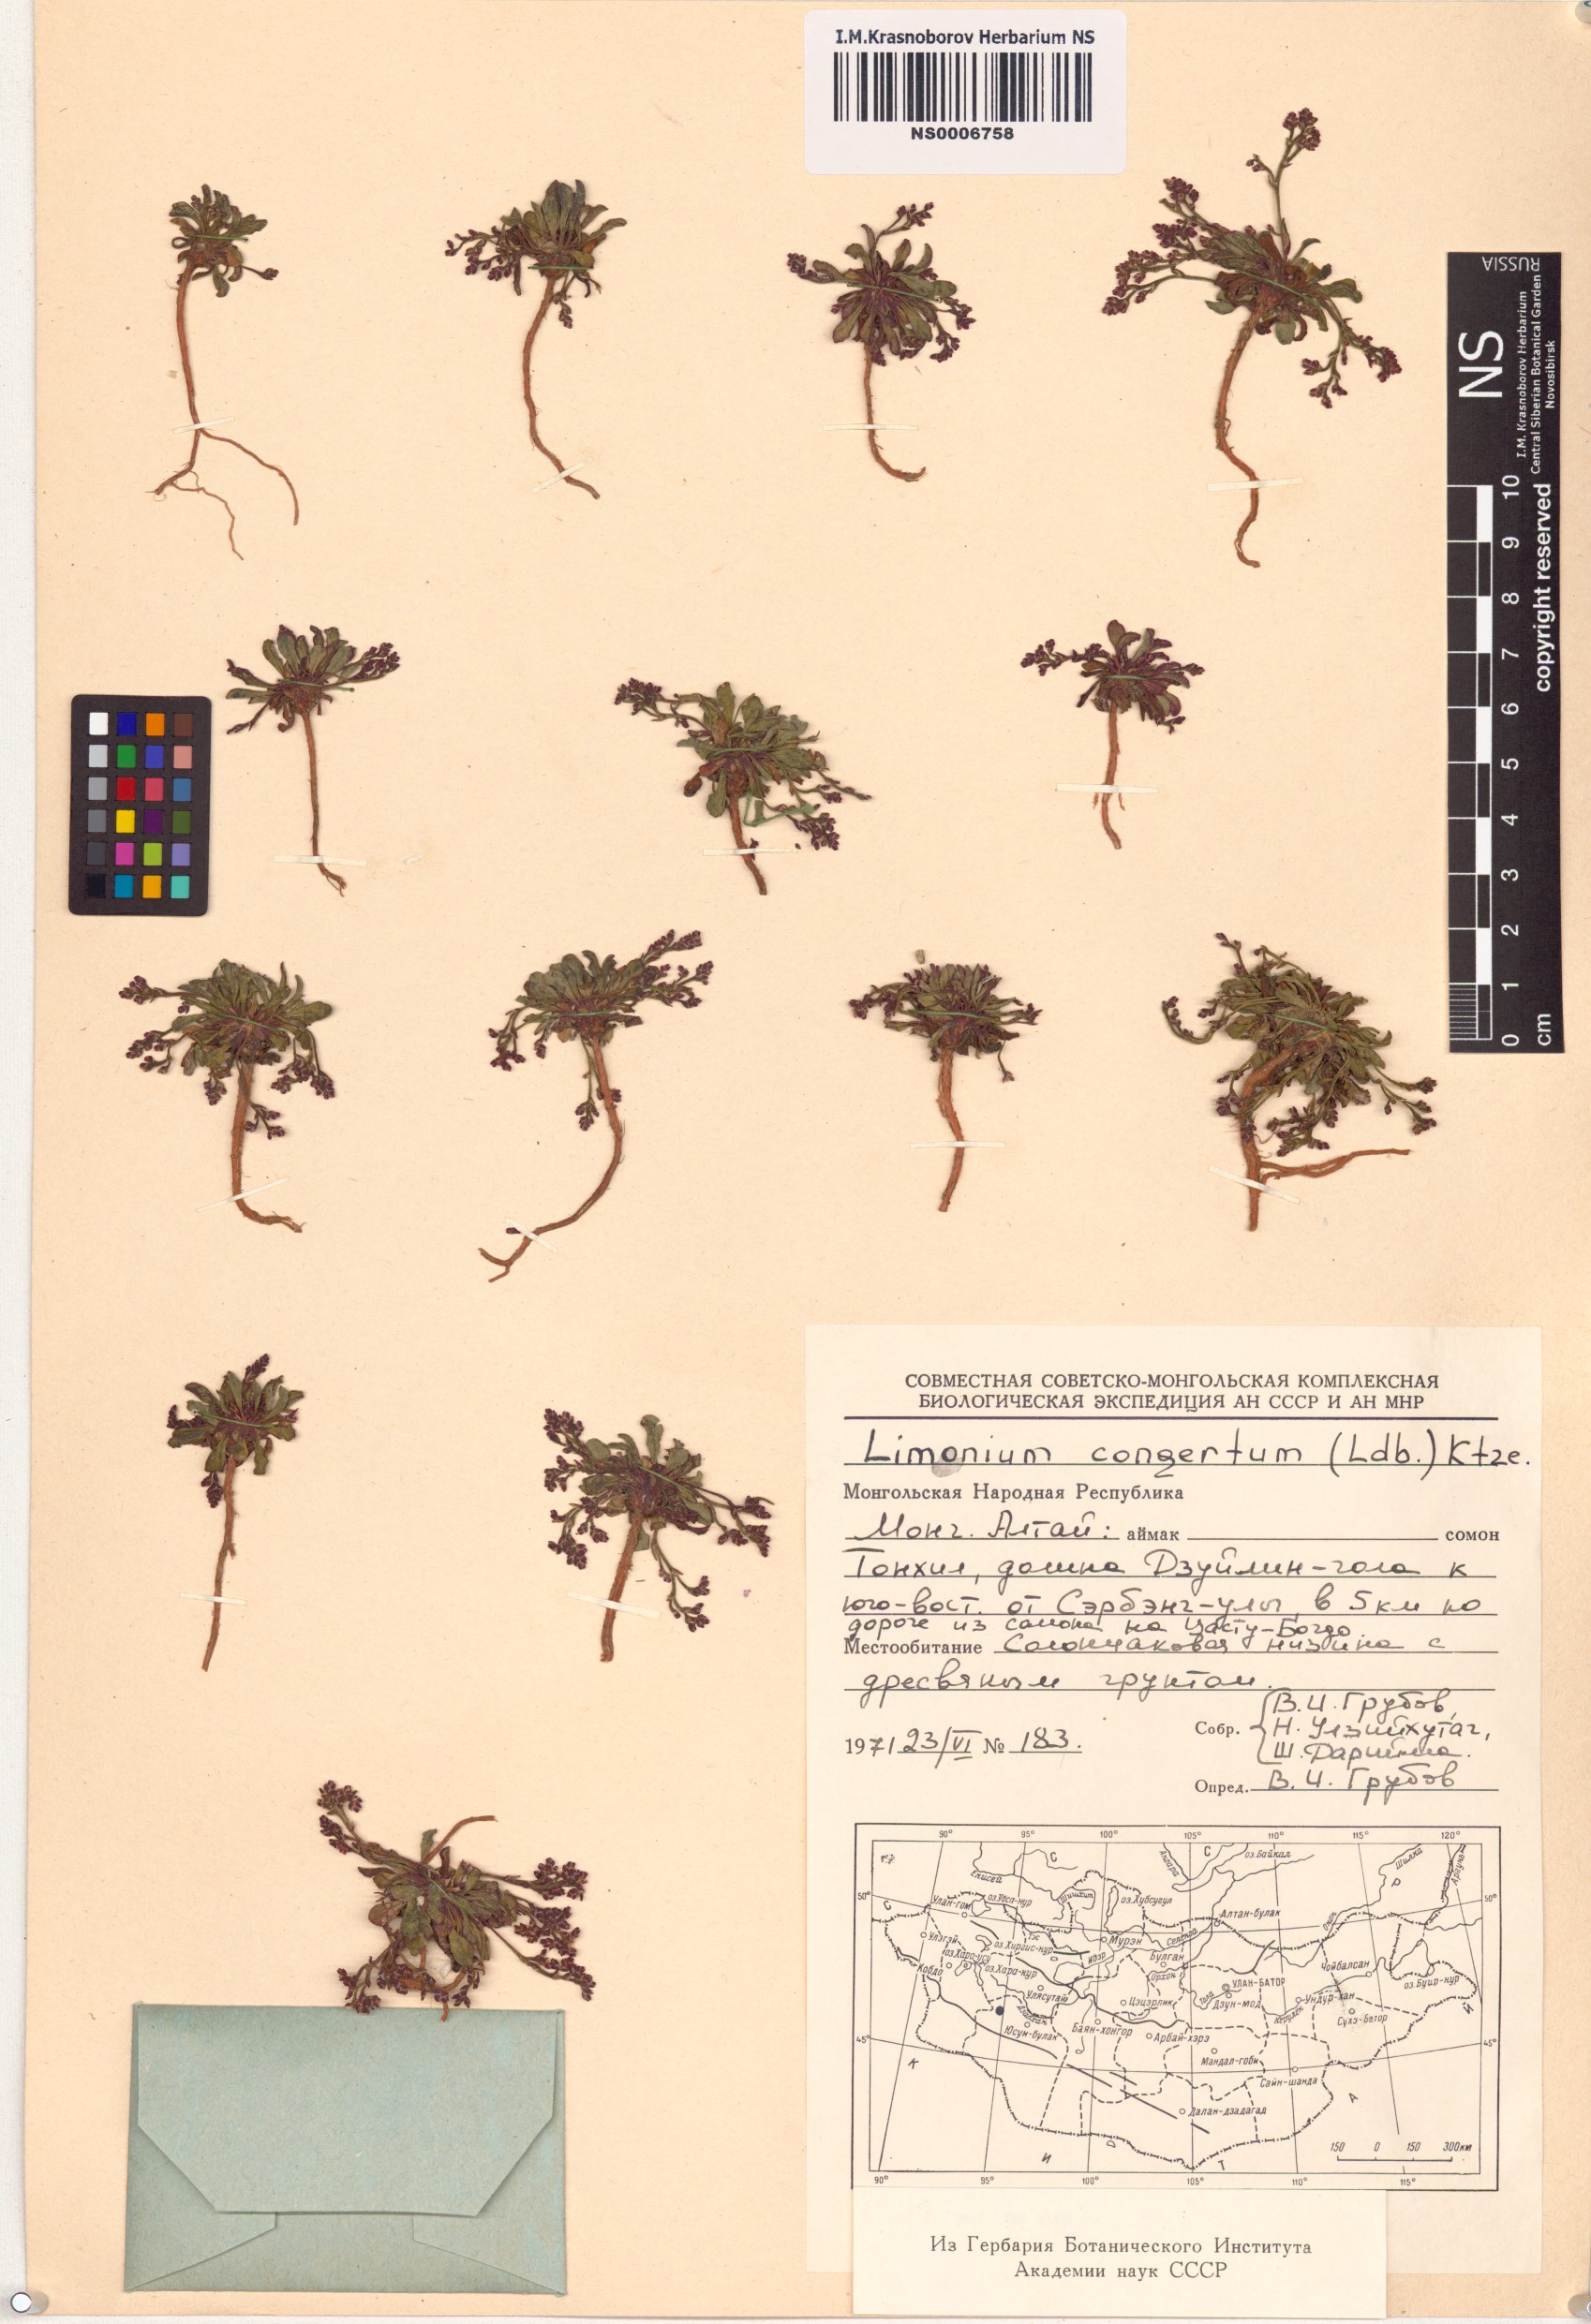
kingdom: Plantae
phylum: Tracheophyta
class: Magnoliopsida
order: Caryophyllales
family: Plumbaginaceae
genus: Limonium
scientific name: Limonium congestum
